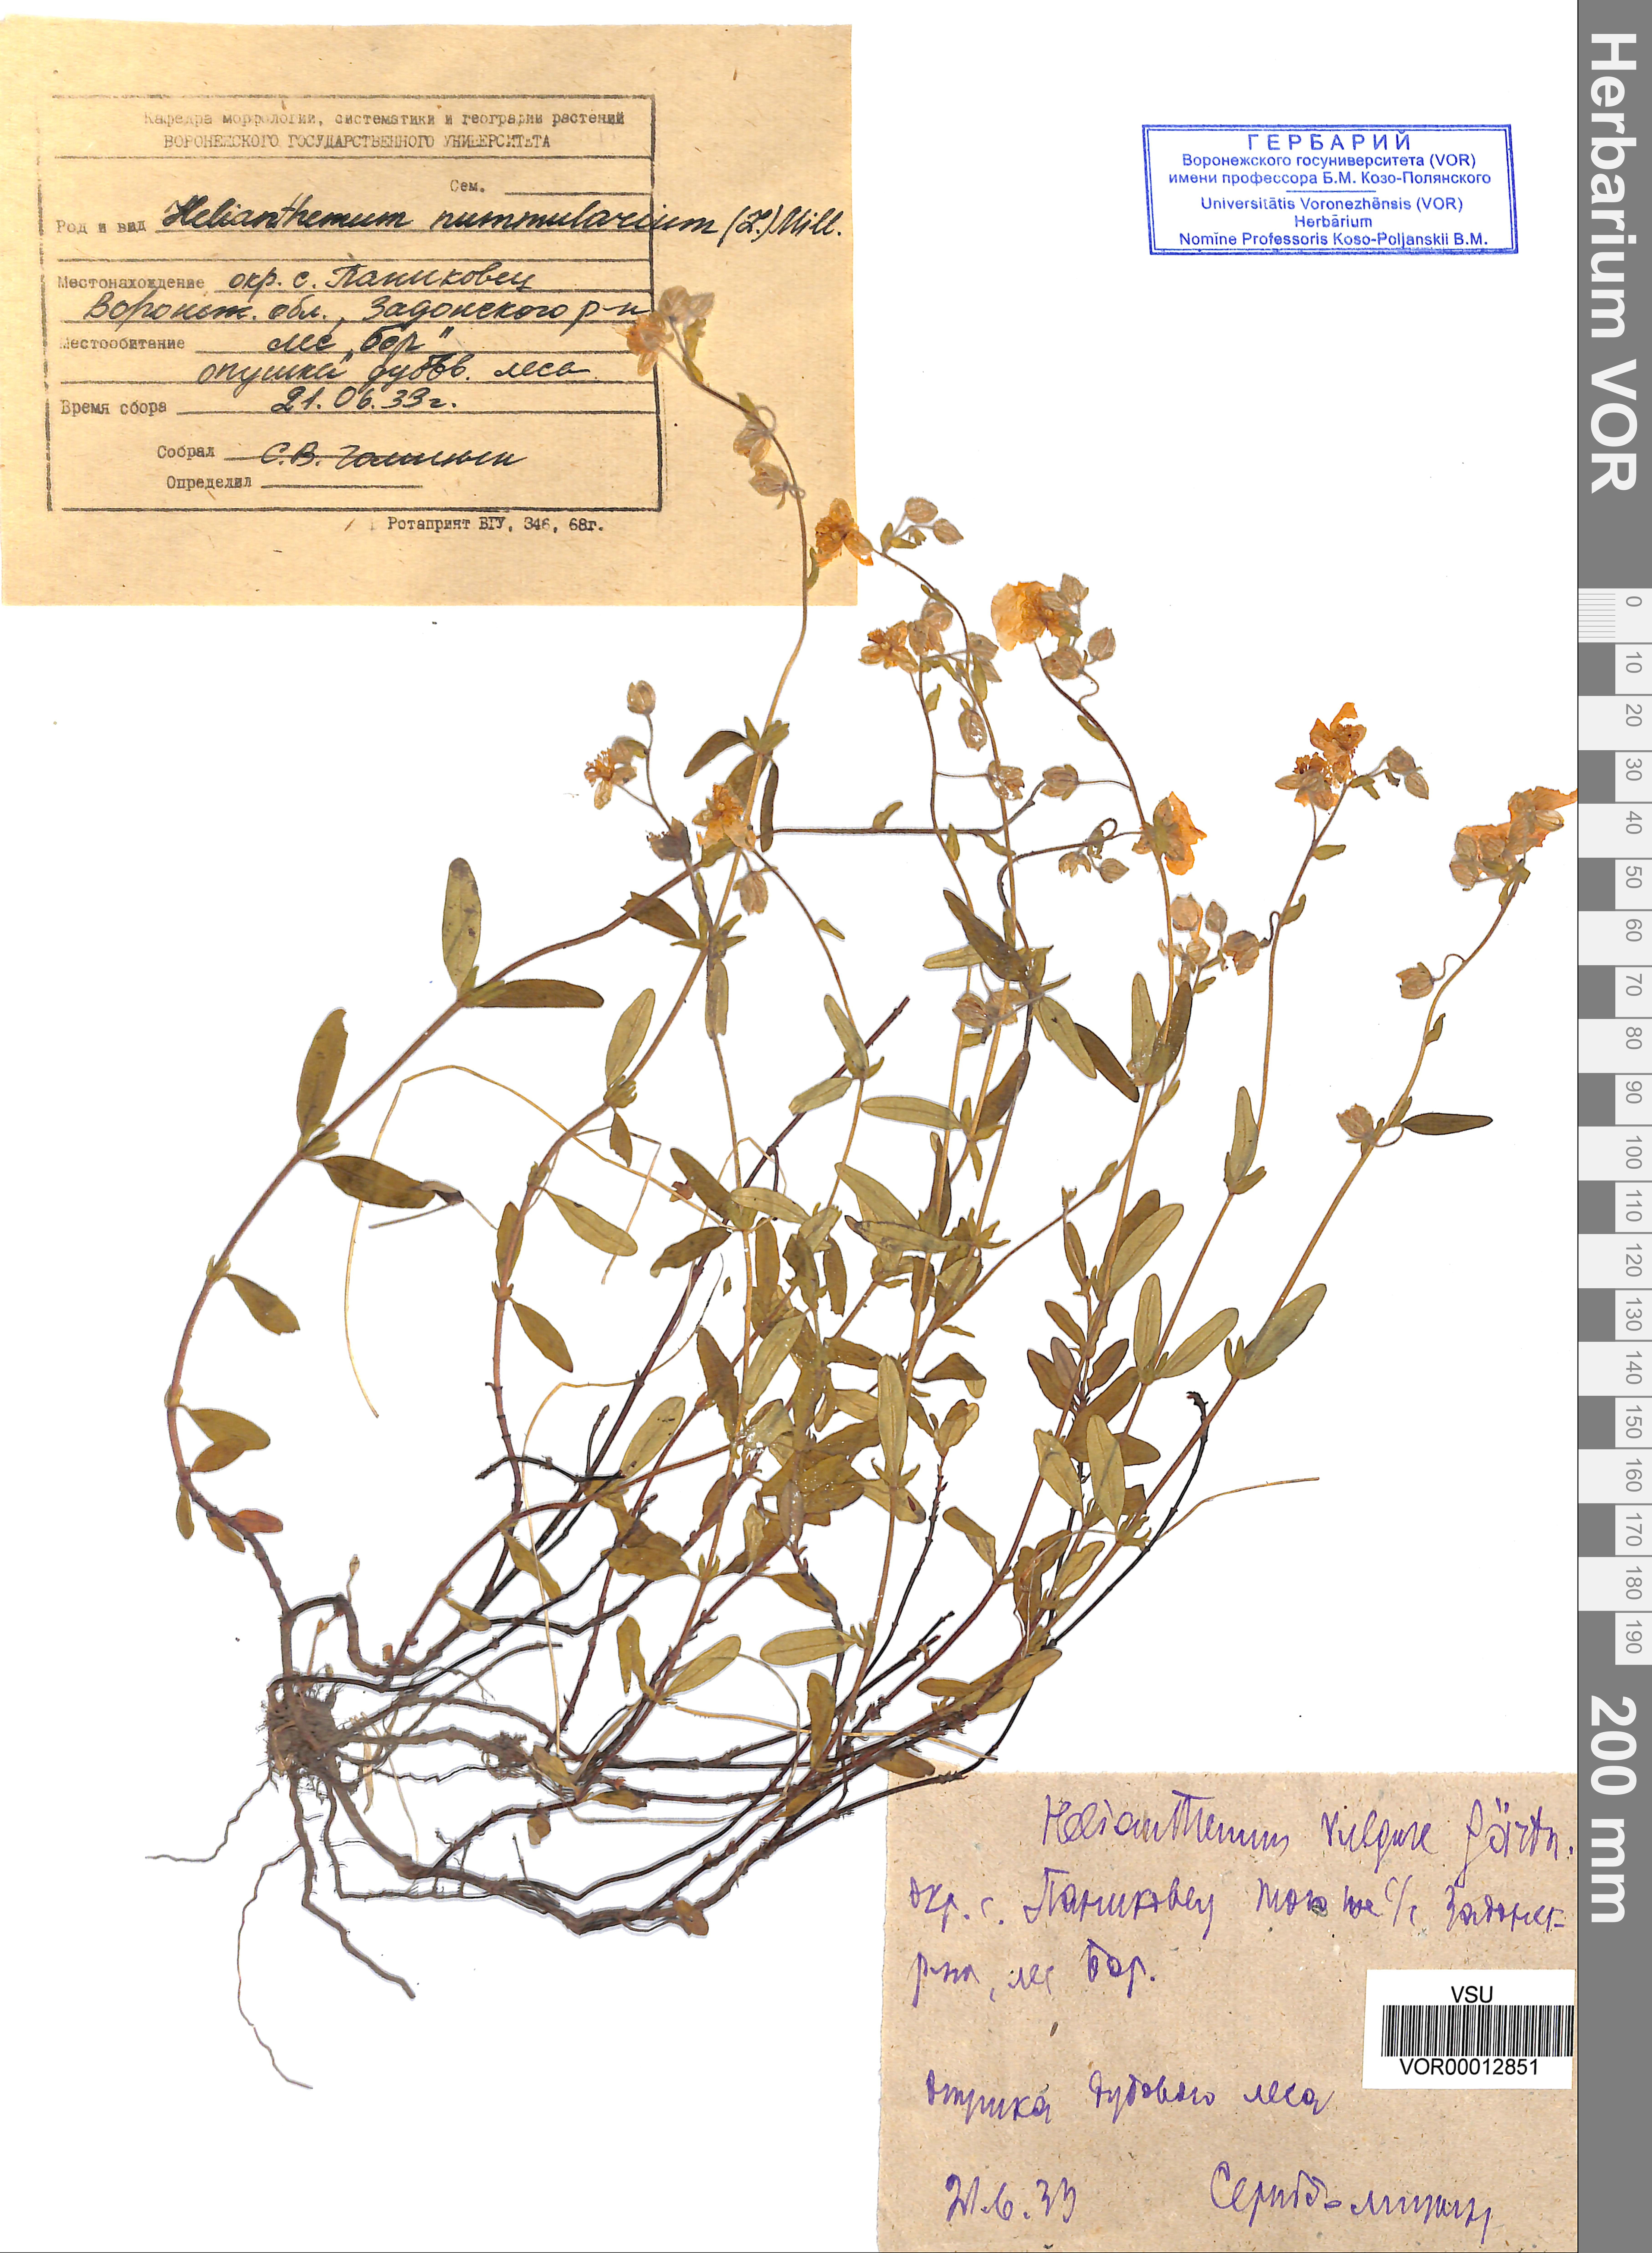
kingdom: Plantae
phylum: Tracheophyta
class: Magnoliopsida
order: Malvales
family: Cistaceae
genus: Helianthemum
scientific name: Helianthemum nummularium
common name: Common rock-rose
